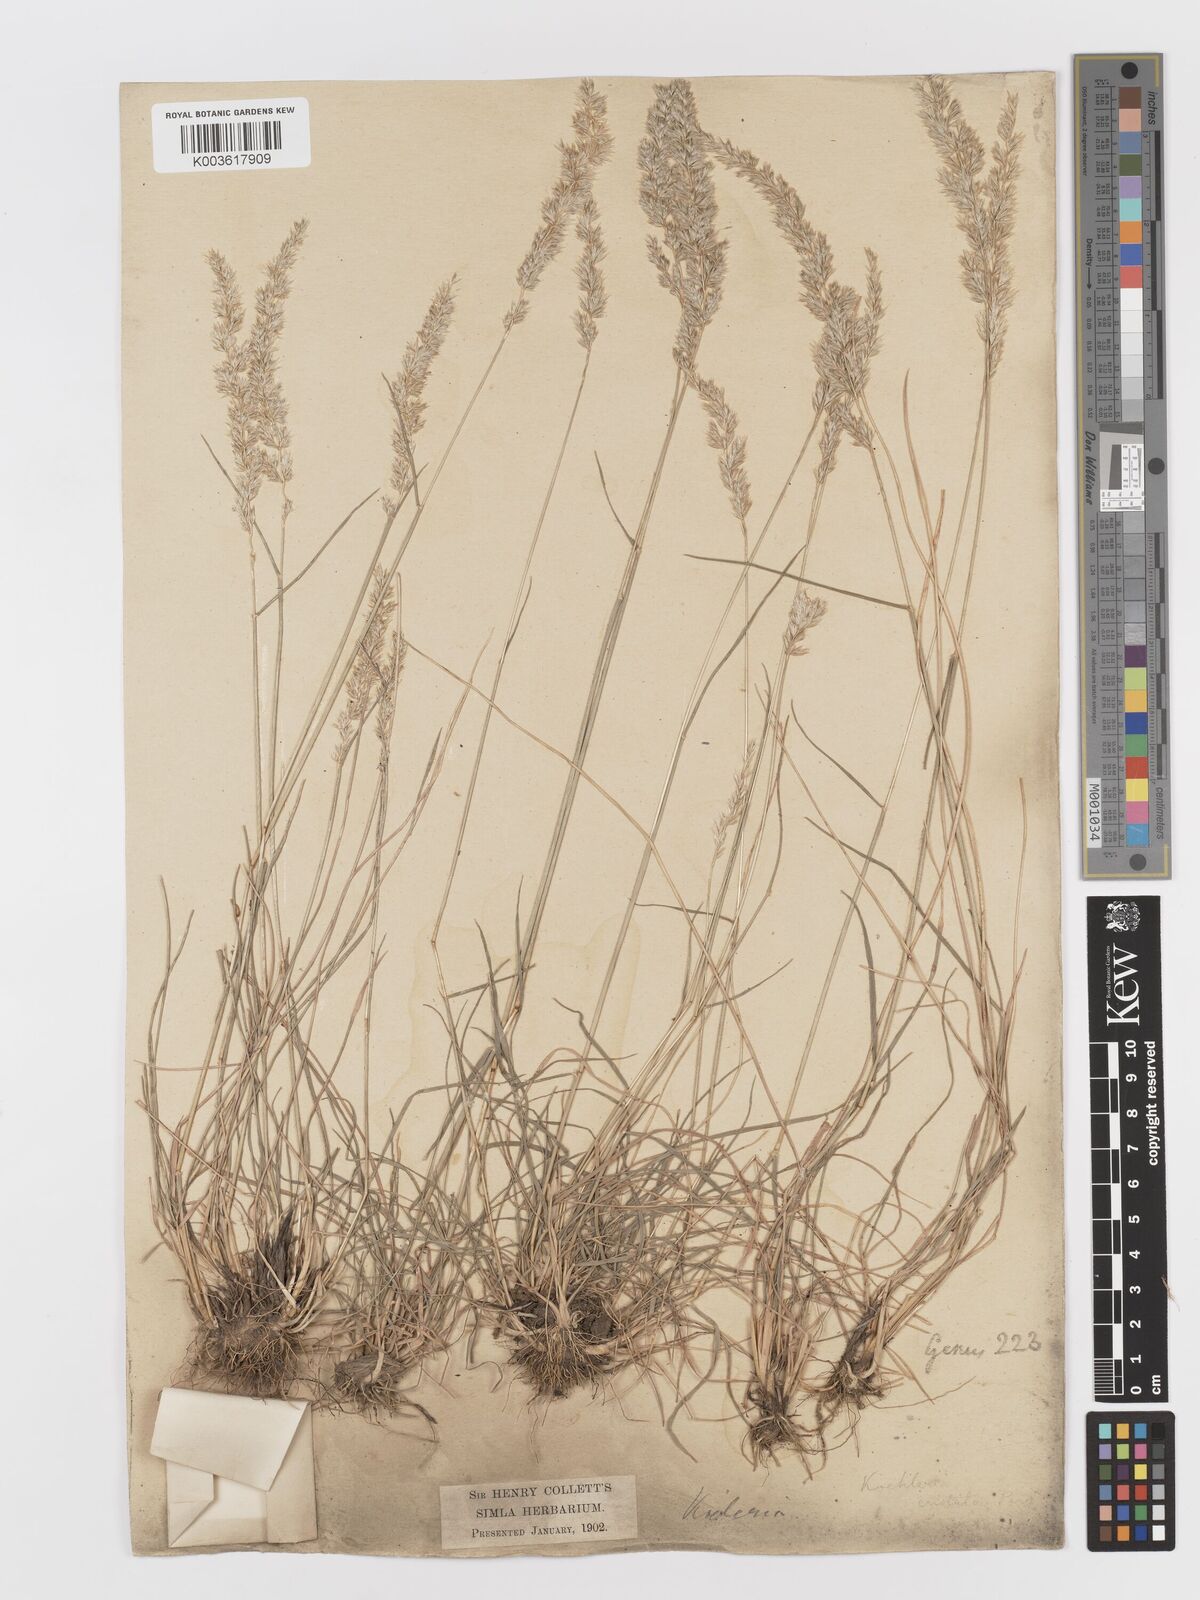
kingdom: Plantae
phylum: Tracheophyta
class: Liliopsida
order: Poales
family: Poaceae
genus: Koeleria
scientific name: Koeleria
